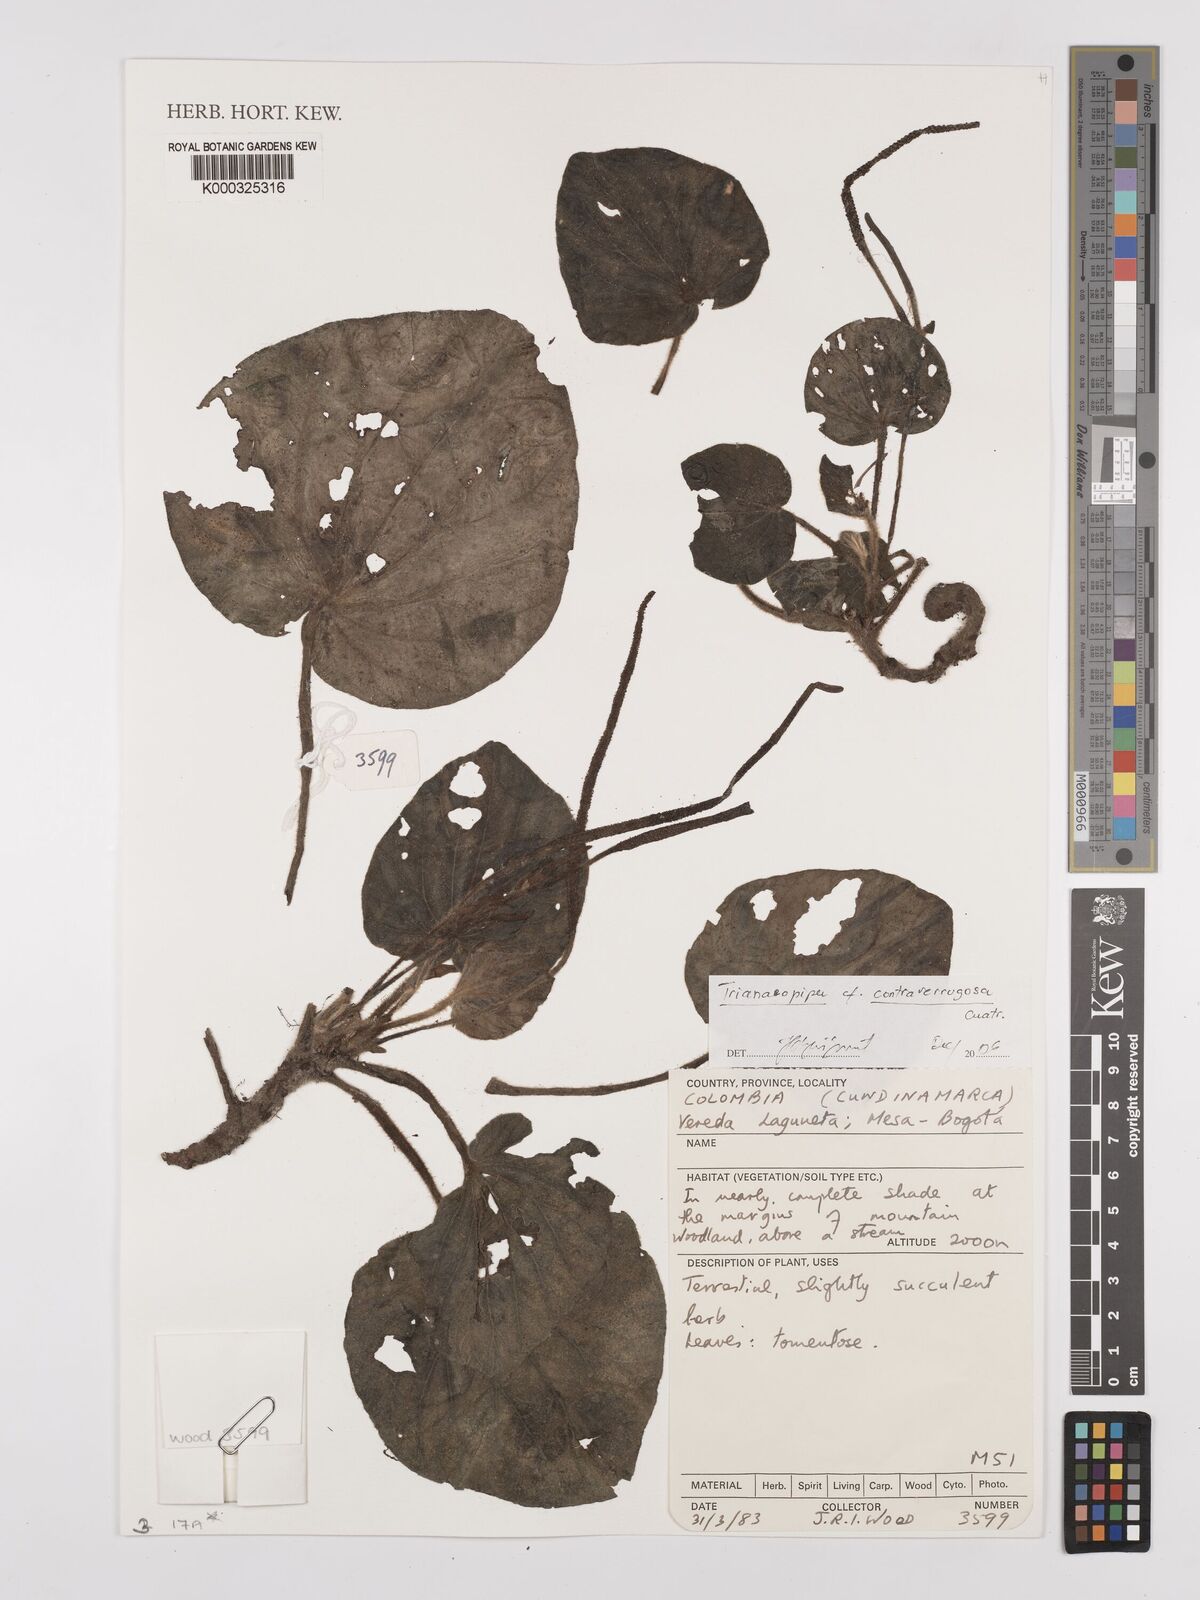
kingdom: Plantae
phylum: Tracheophyta
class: Magnoliopsida
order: Piperales
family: Piperaceae
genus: Piper
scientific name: Piper contraverrugosum
